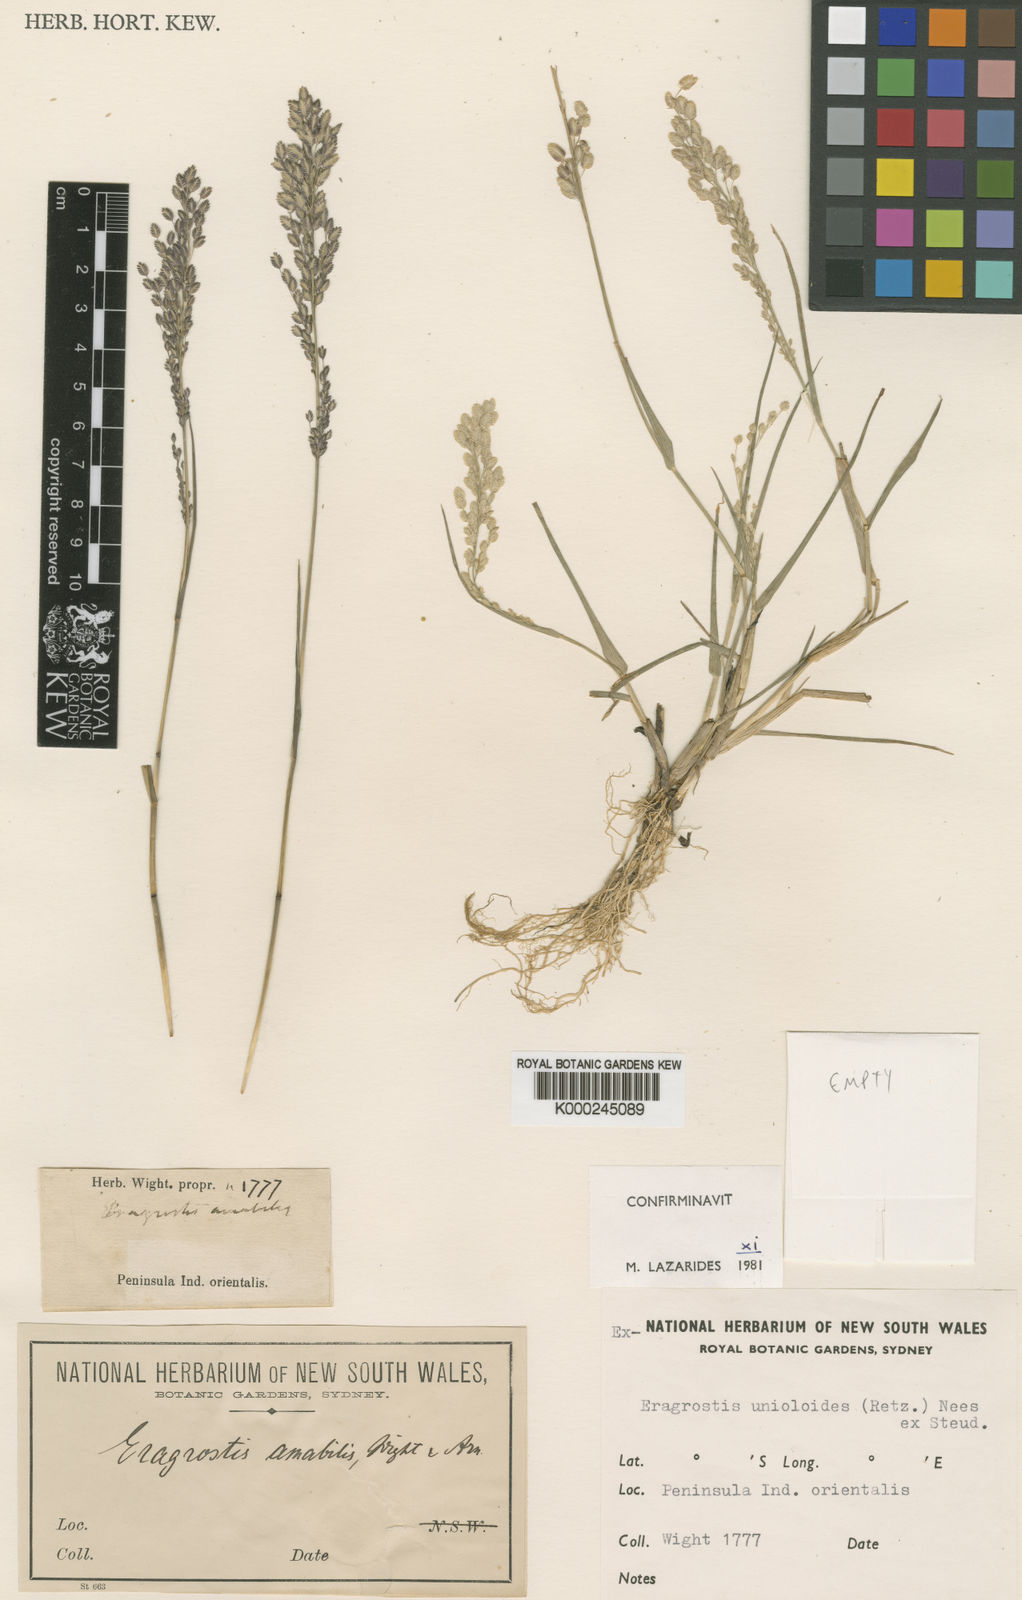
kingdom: Plantae
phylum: Tracheophyta
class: Liliopsida
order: Poales
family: Poaceae
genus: Eragrostis
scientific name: Eragrostis unioloides
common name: Chinese lovegrass
